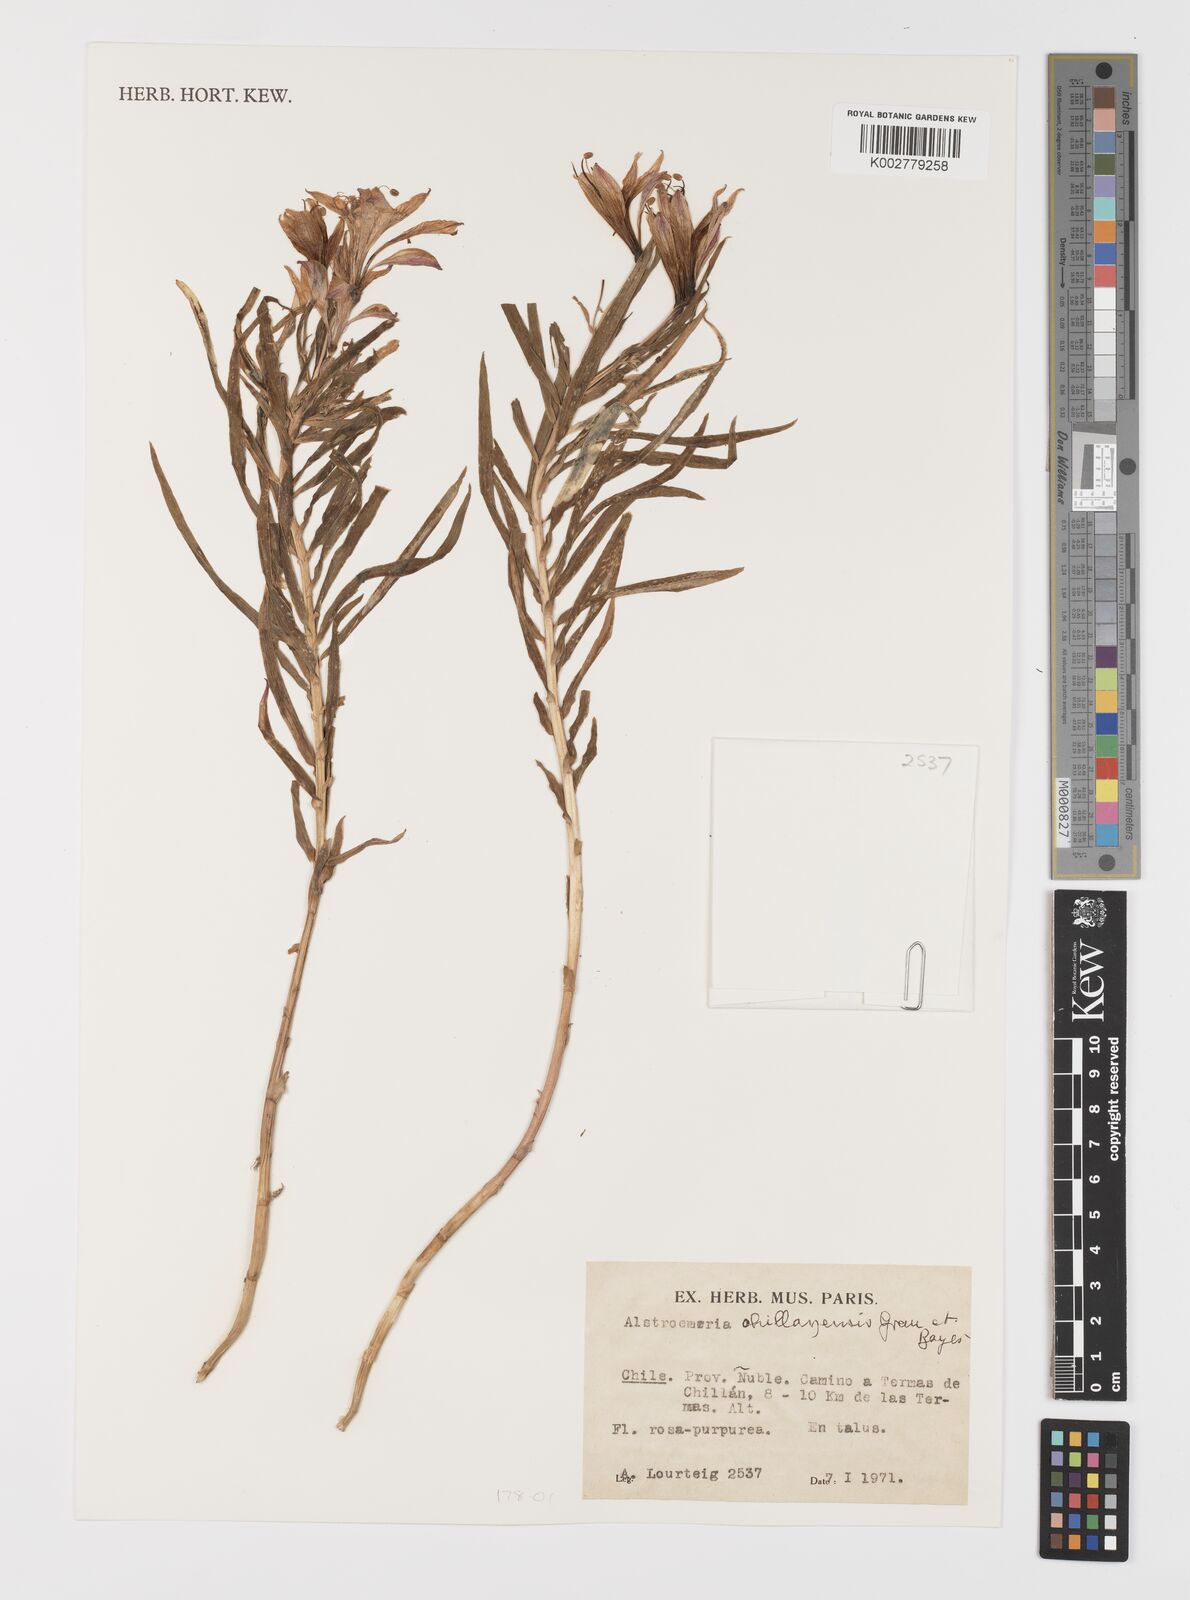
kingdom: Plantae
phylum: Tracheophyta
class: Liliopsida
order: Liliales
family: Alstroemeriaceae
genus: Alstroemeria
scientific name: Alstroemeria presliana
